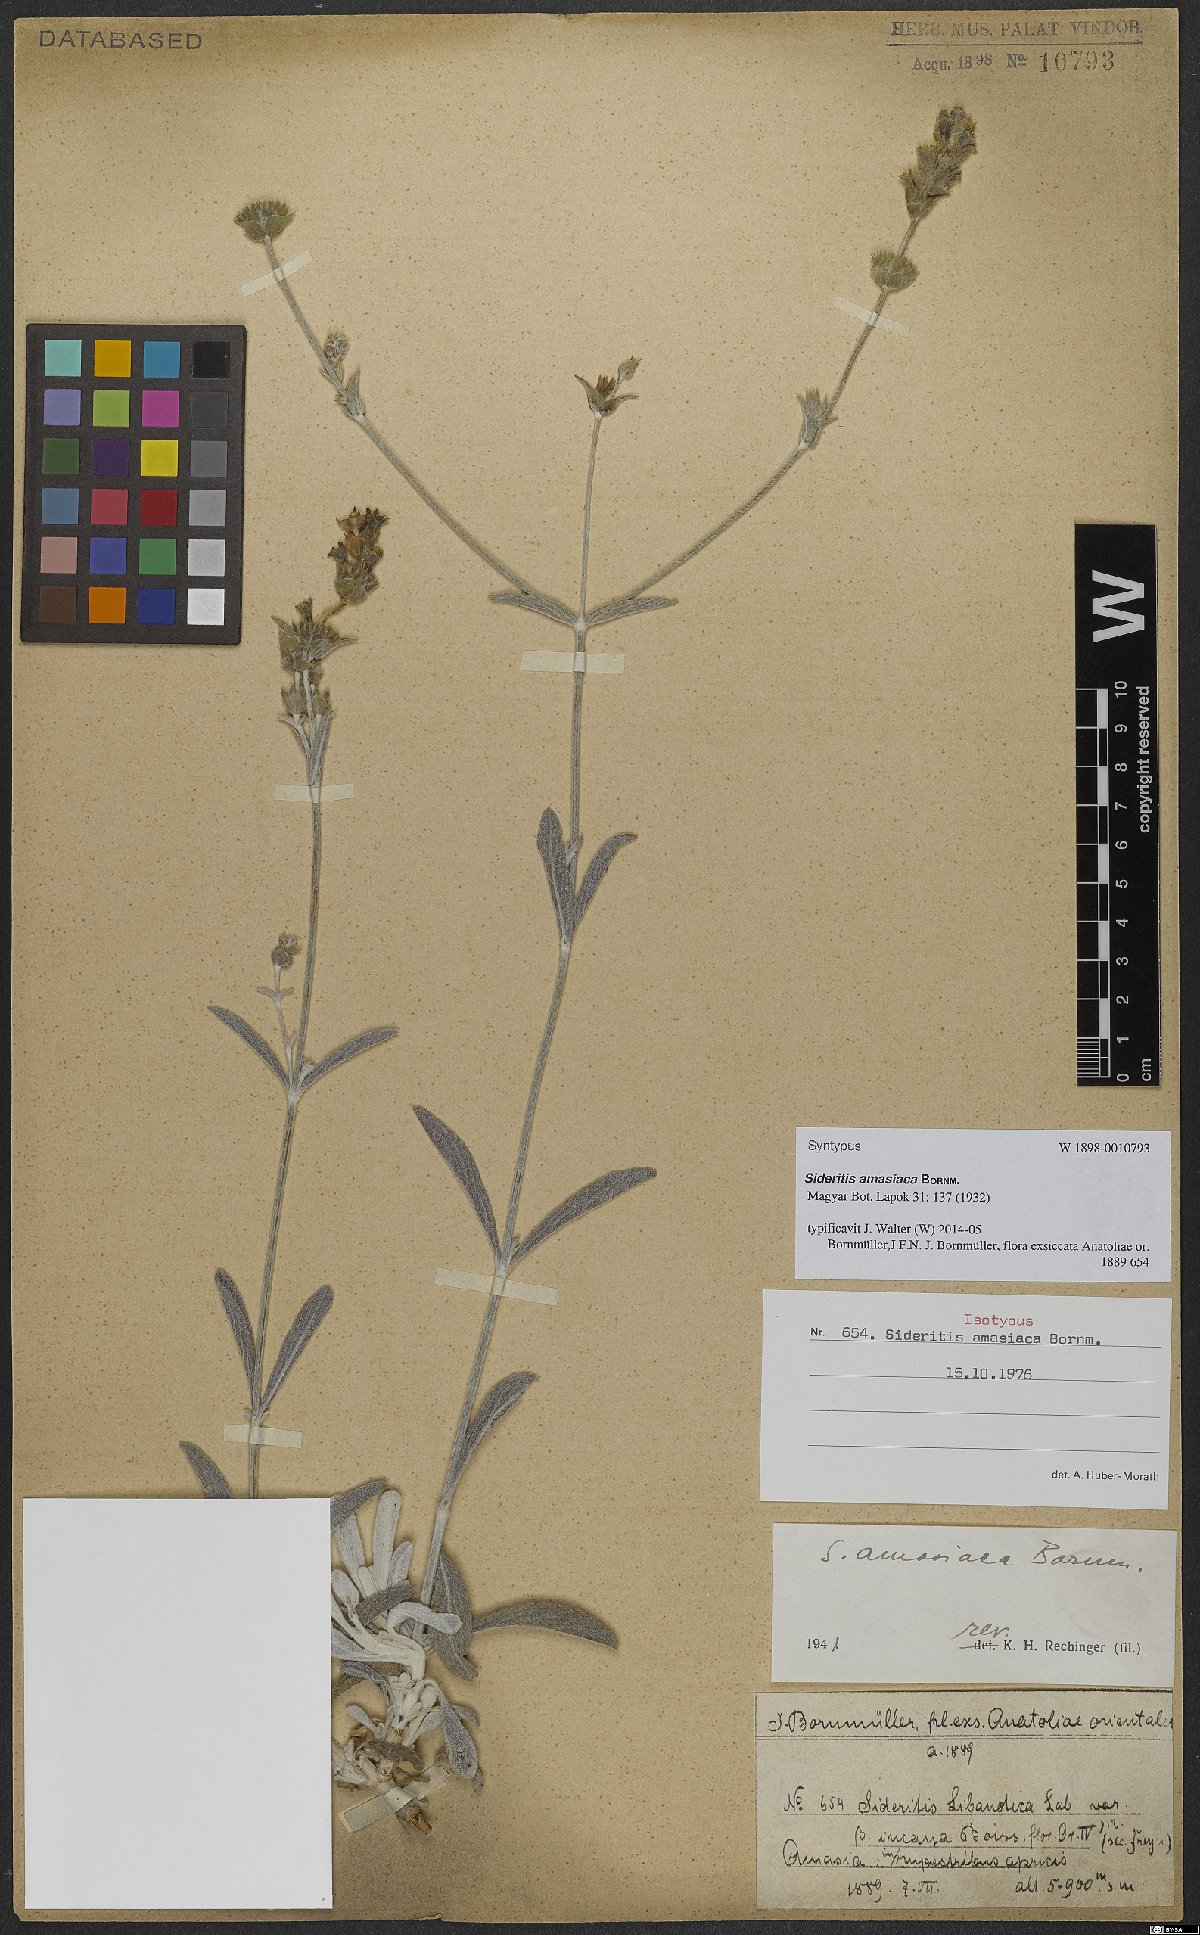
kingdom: Plantae
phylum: Tracheophyta
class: Magnoliopsida
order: Lamiales
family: Lamiaceae
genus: Sideritis
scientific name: Sideritis amasiaca
